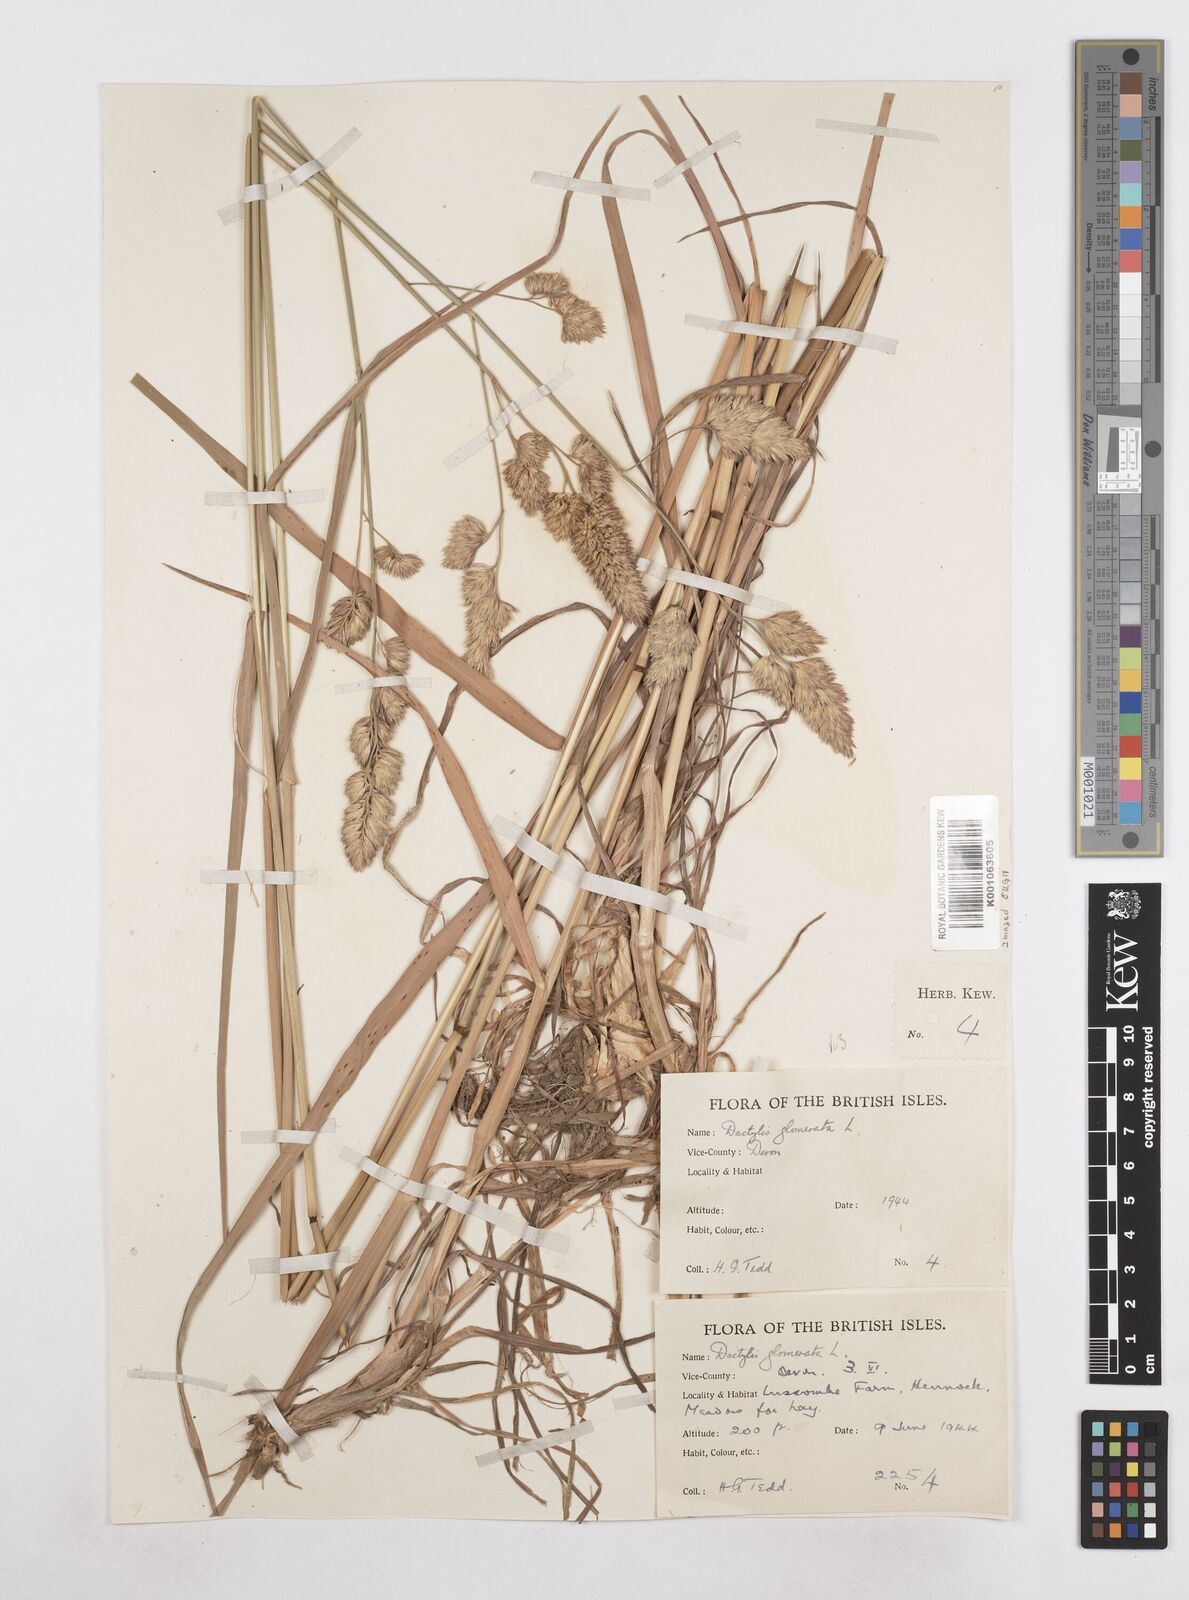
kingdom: Plantae
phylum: Tracheophyta
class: Liliopsida
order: Poales
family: Poaceae
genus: Dactylis
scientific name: Dactylis glomerata
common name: Orchardgrass
